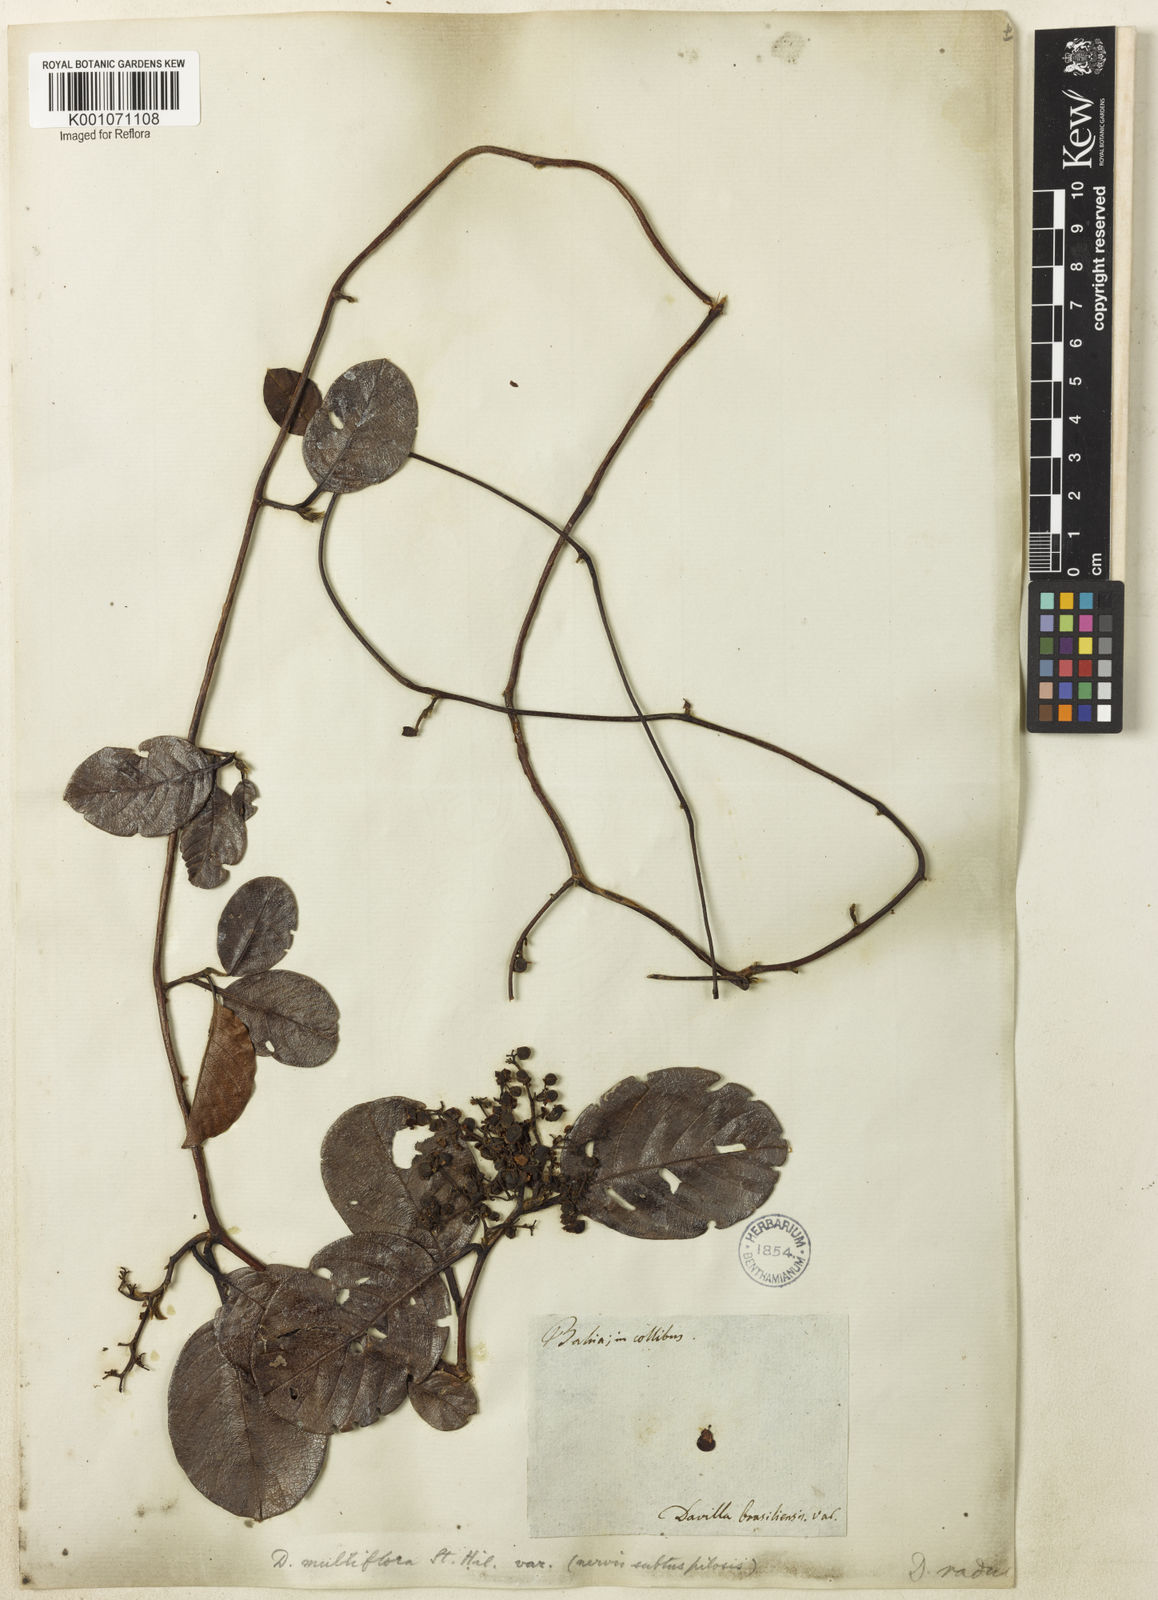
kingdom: Plantae
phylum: Tracheophyta
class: Magnoliopsida
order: Dilleniales
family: Dilleniaceae
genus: Davilla
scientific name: Davilla nitida
